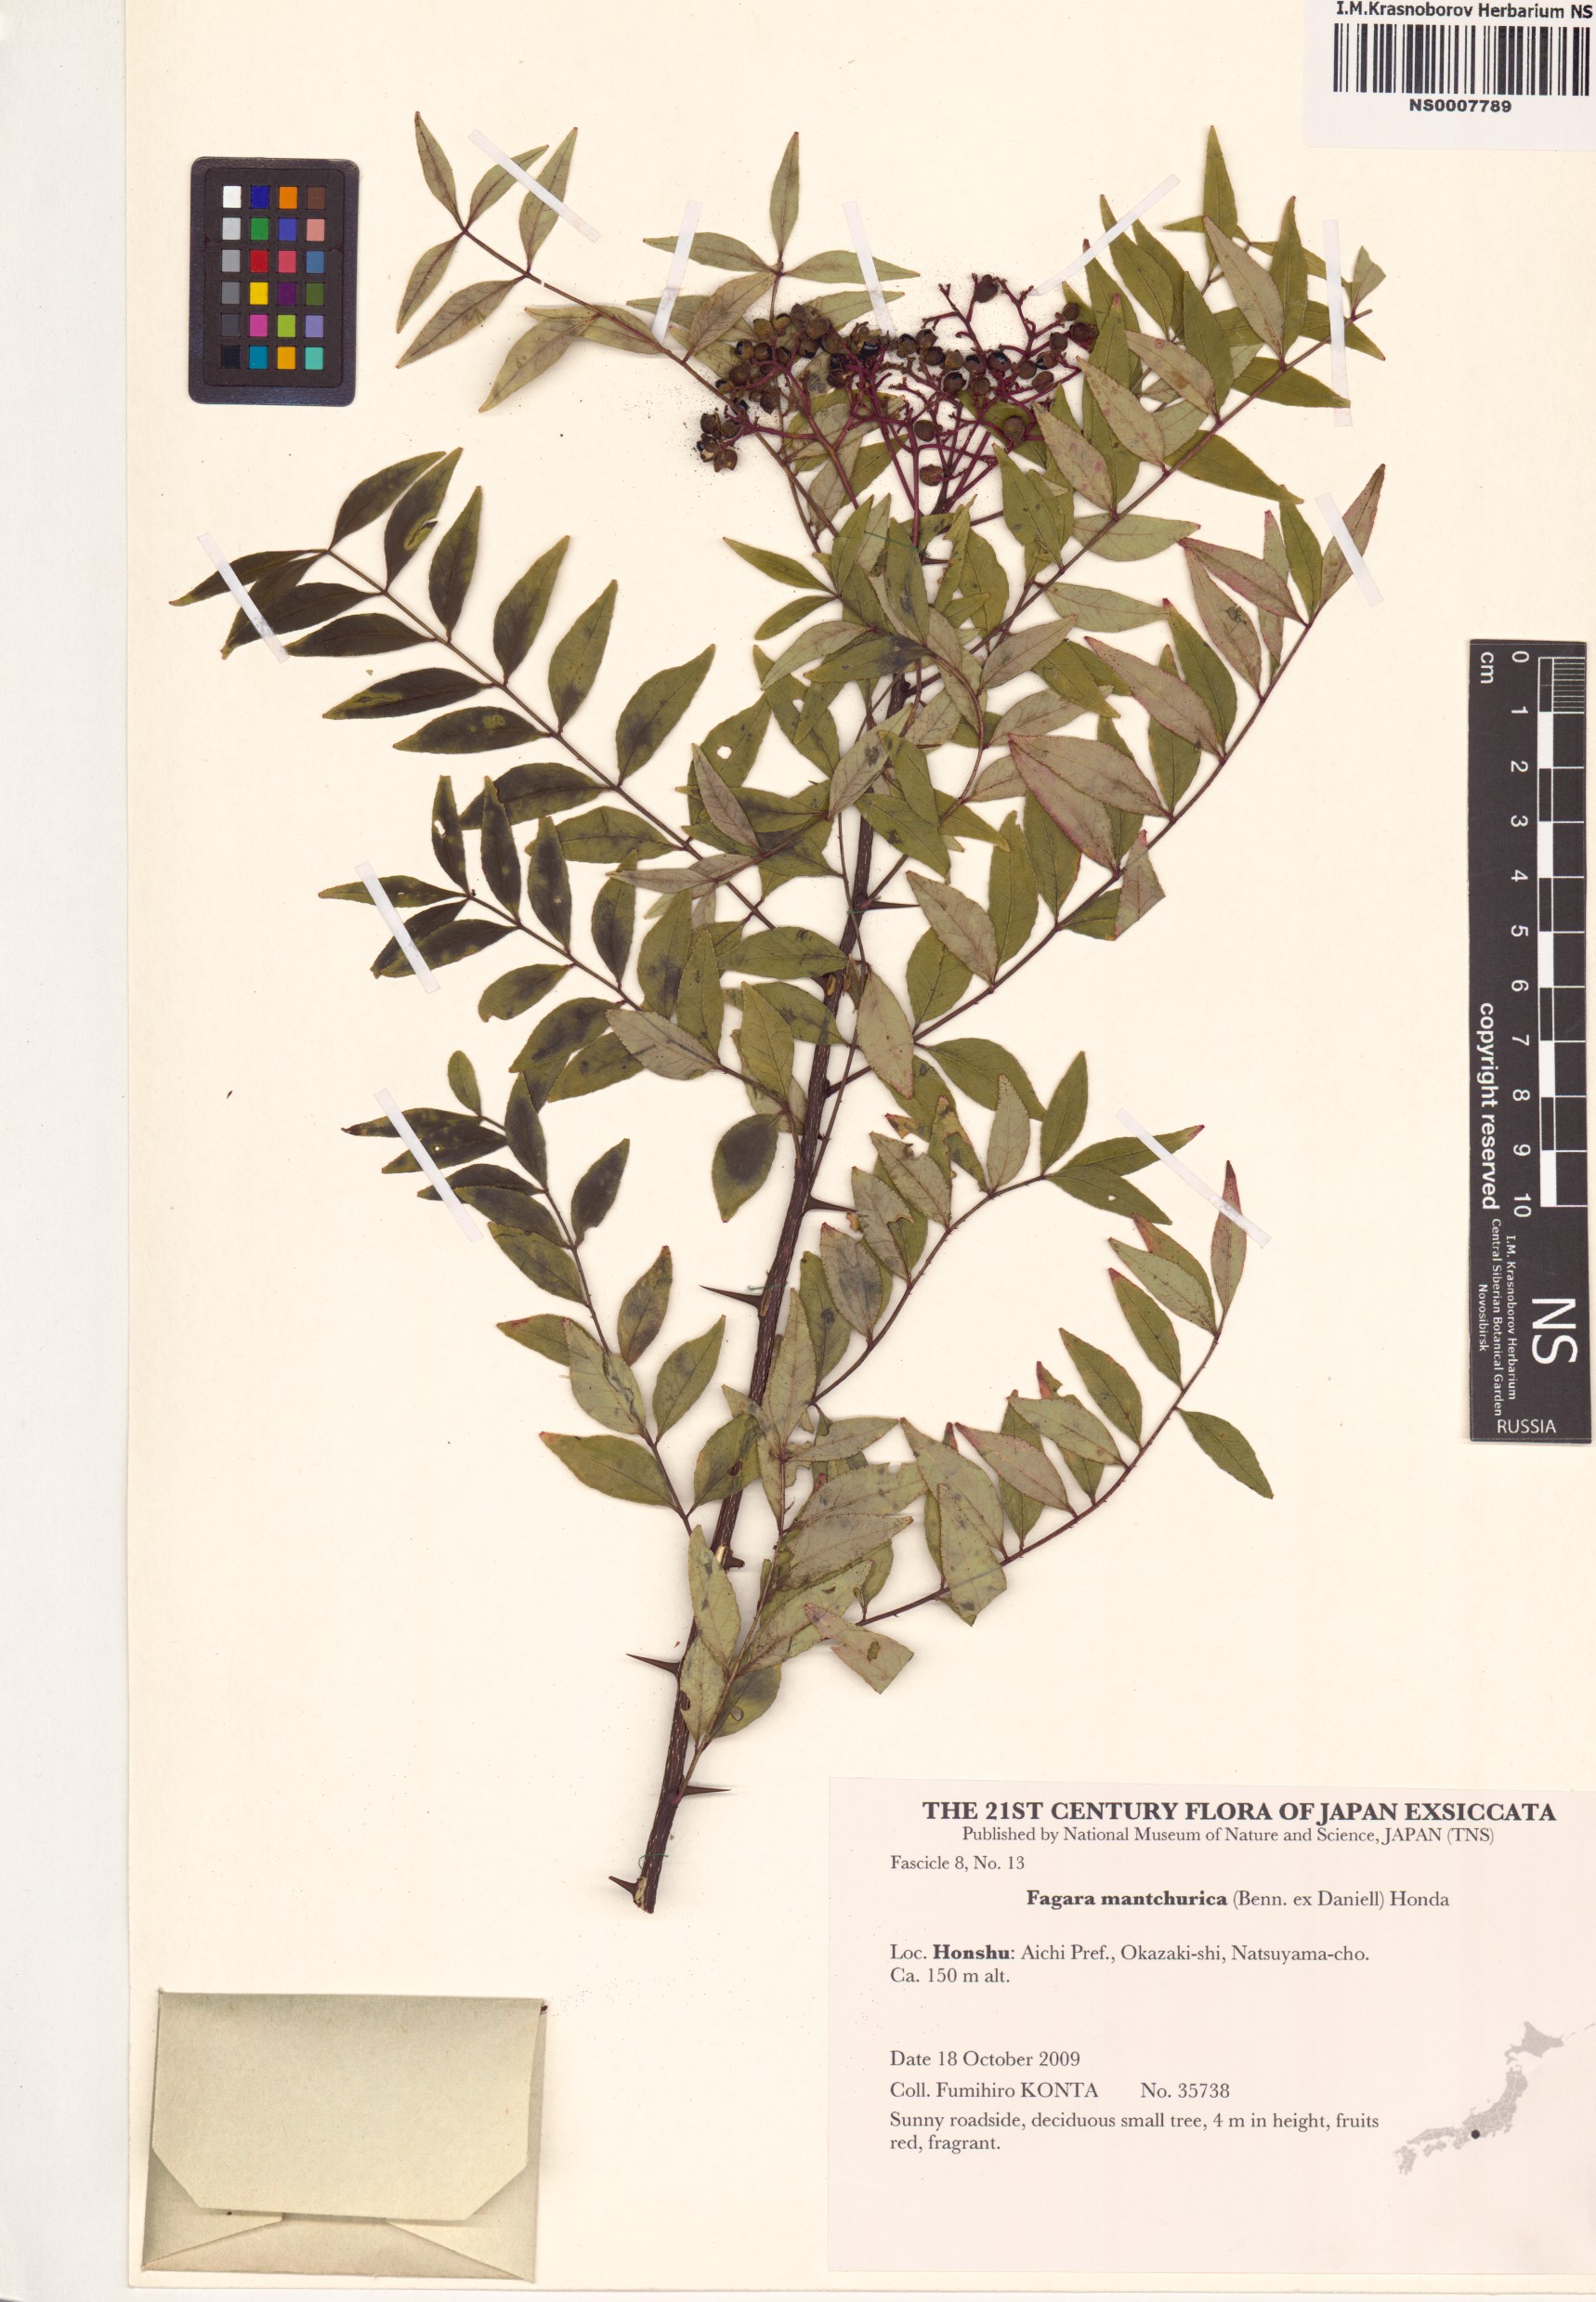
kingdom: Plantae
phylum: Tracheophyta
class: Magnoliopsida
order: Sapindales
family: Rutaceae
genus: Zanthoxylum
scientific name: Zanthoxylum schinifolium
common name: Sichuan-pepper
